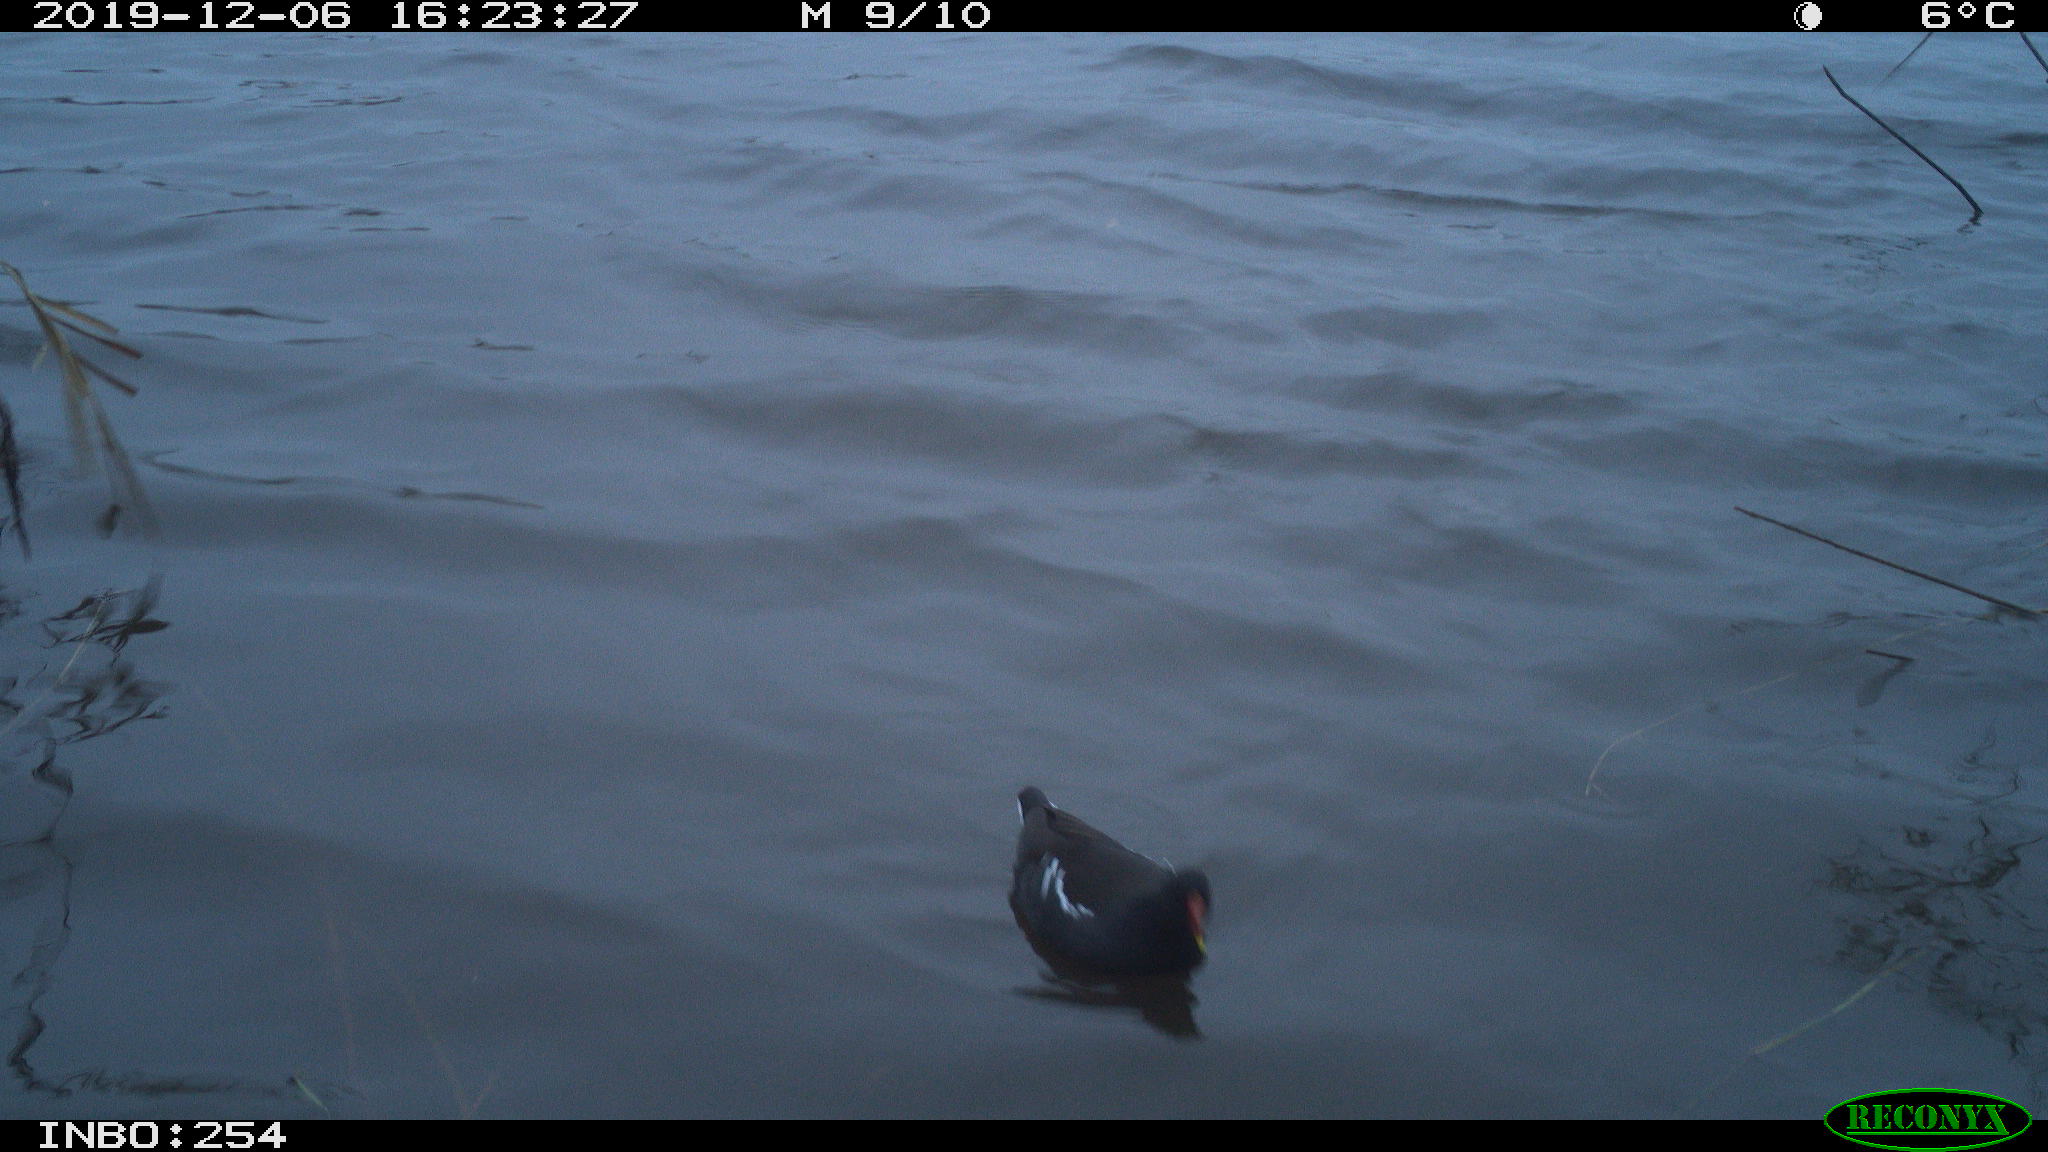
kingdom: Animalia
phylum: Chordata
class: Aves
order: Gruiformes
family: Rallidae
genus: Gallinula
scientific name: Gallinula chloropus
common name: Common moorhen
